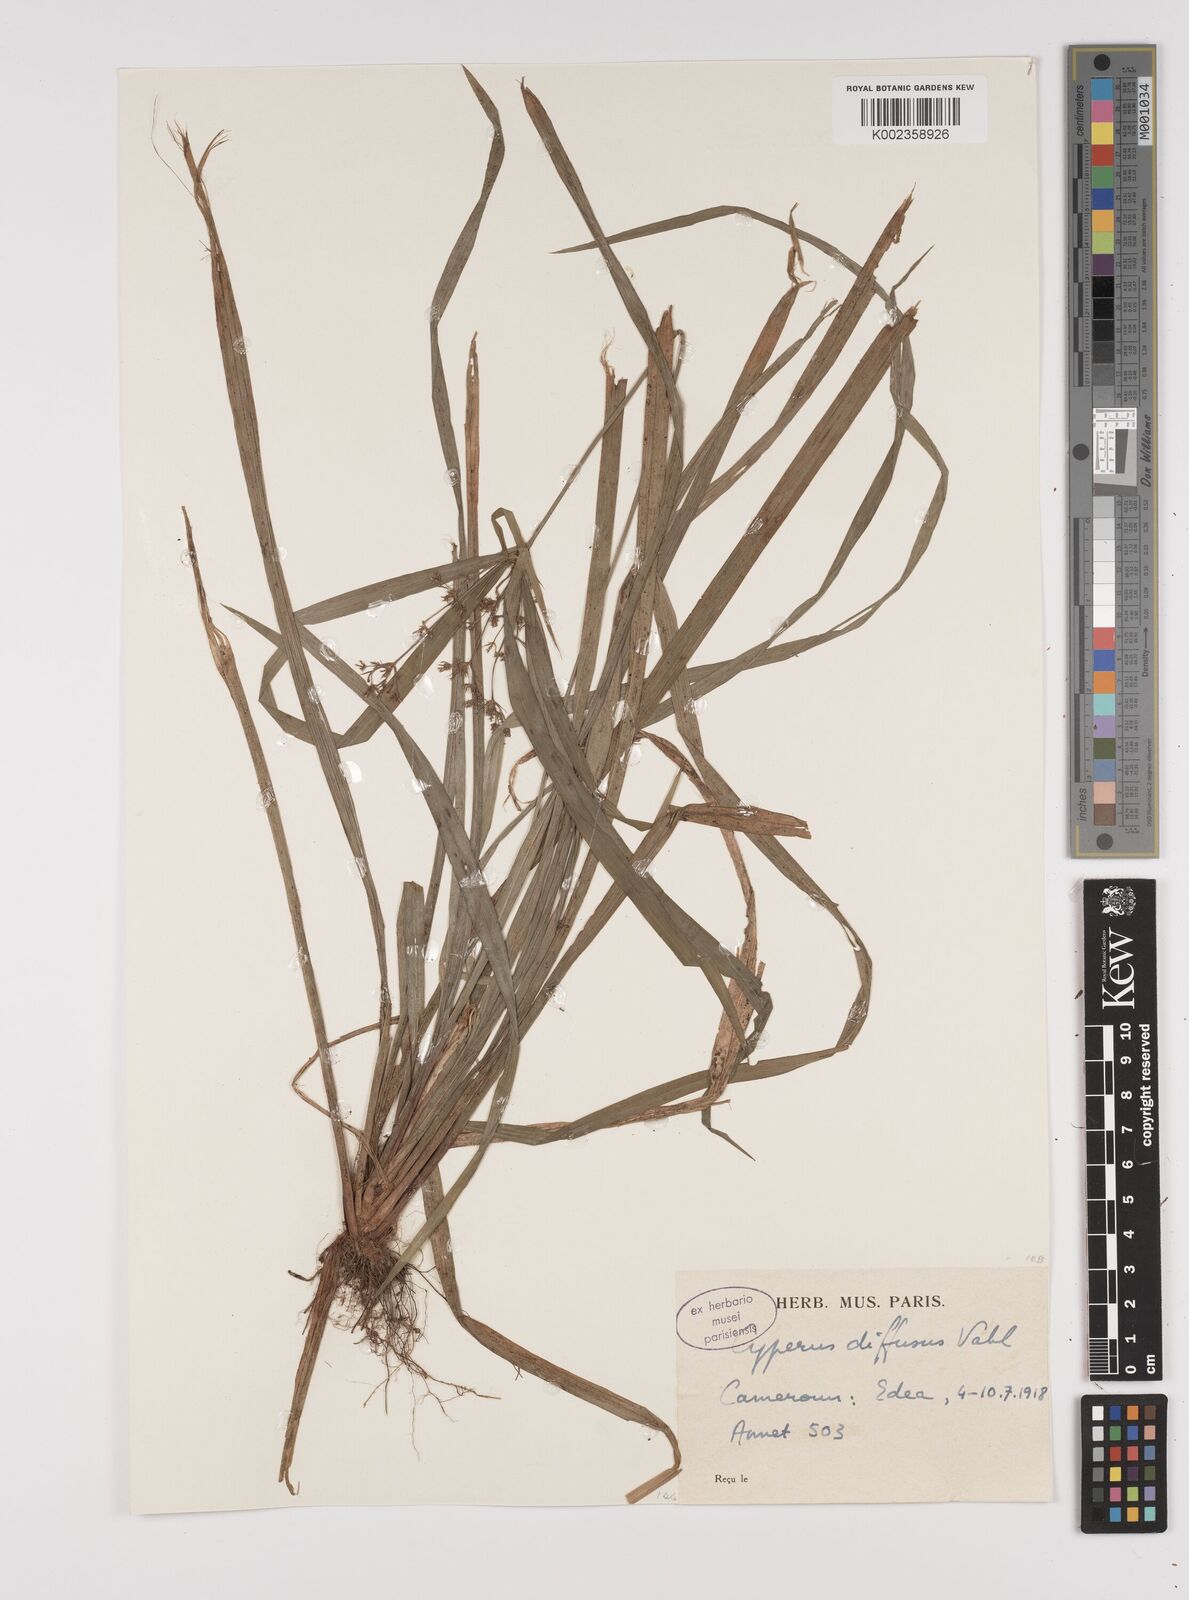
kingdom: Plantae
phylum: Tracheophyta
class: Liliopsida
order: Poales
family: Cyperaceae
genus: Cyperus
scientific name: Cyperus buchholzii
